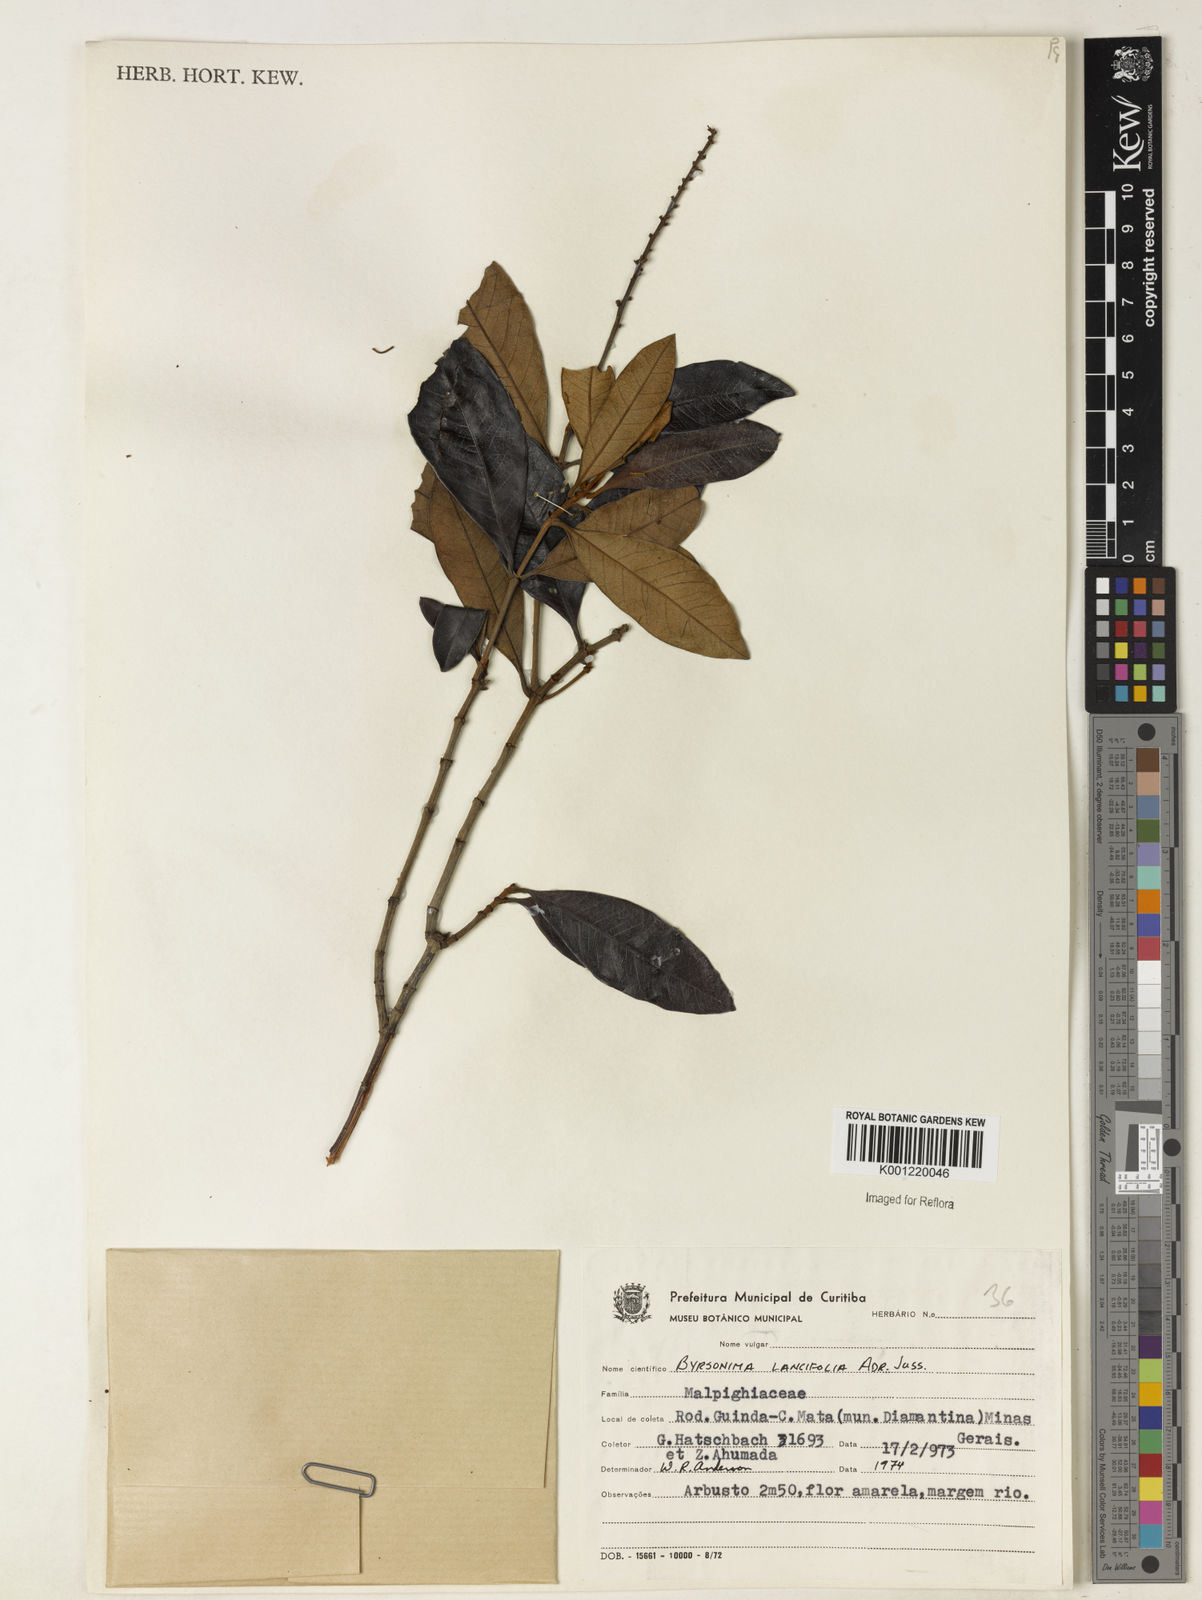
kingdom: Plantae
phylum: Tracheophyta
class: Magnoliopsida
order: Malpighiales
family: Malpighiaceae
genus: Byrsonima
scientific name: Byrsonima lancifolia
